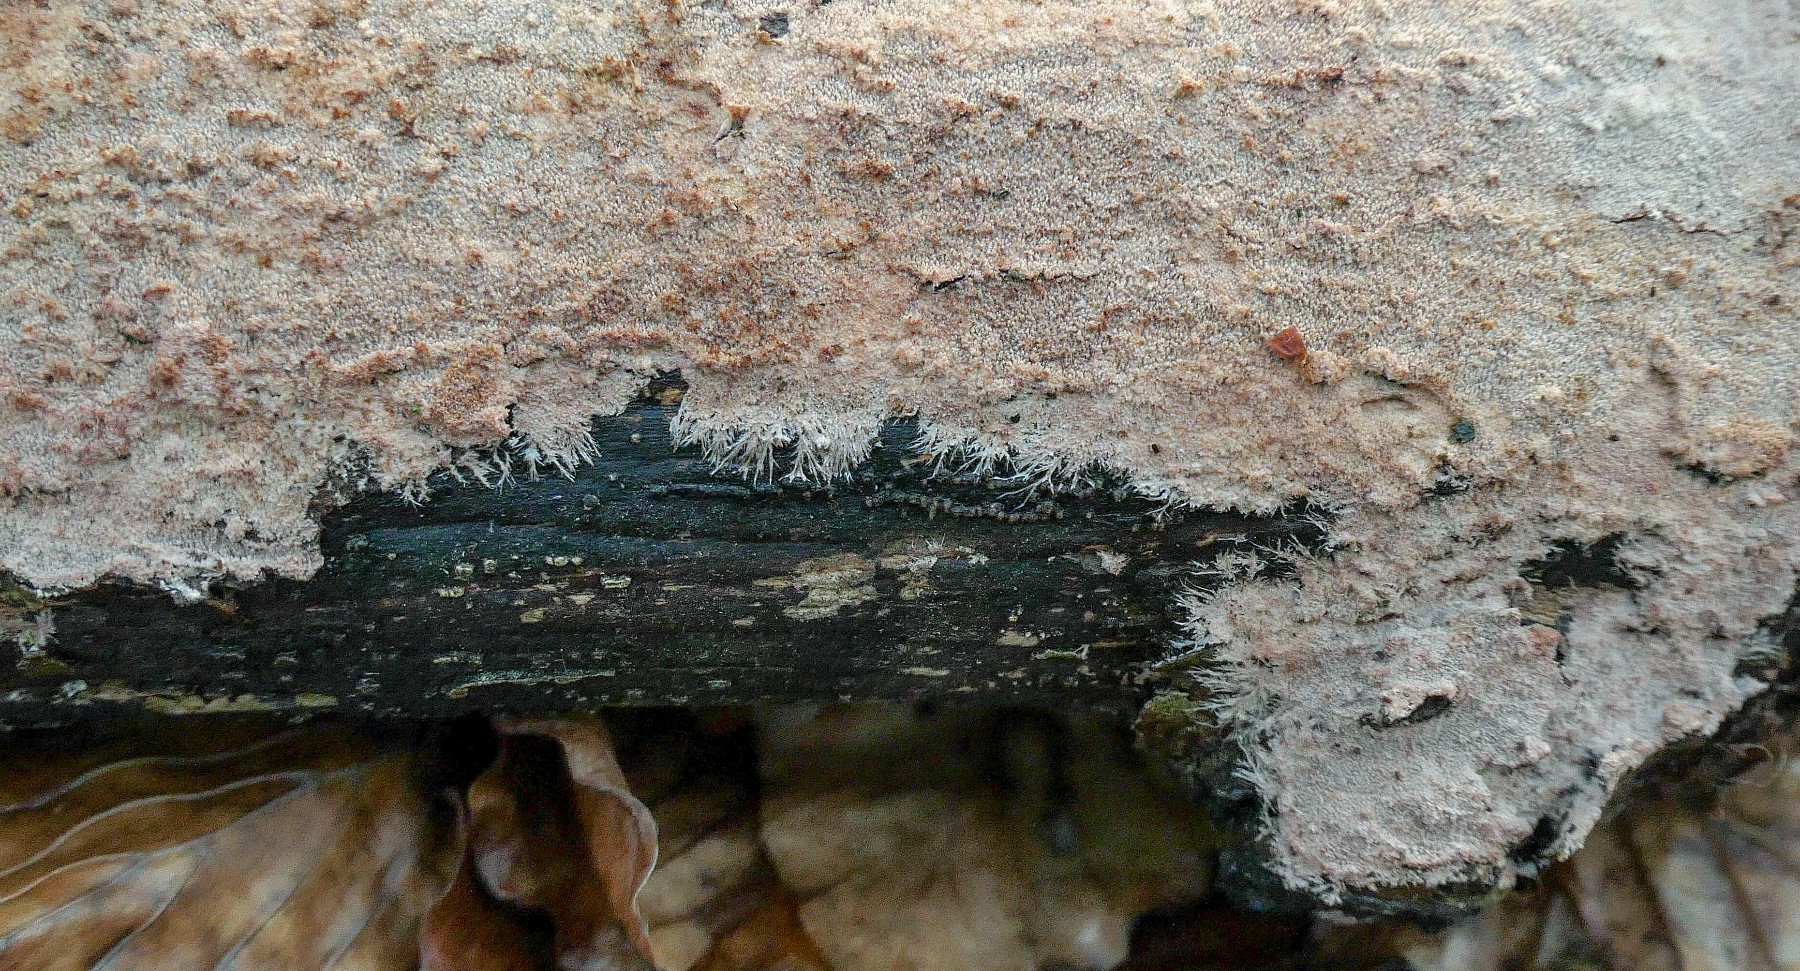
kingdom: Fungi
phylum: Basidiomycota
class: Agaricomycetes
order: Polyporales
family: Steccherinaceae
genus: Steccherinum
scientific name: Steccherinum fimbriatum
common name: trådet skønpig
